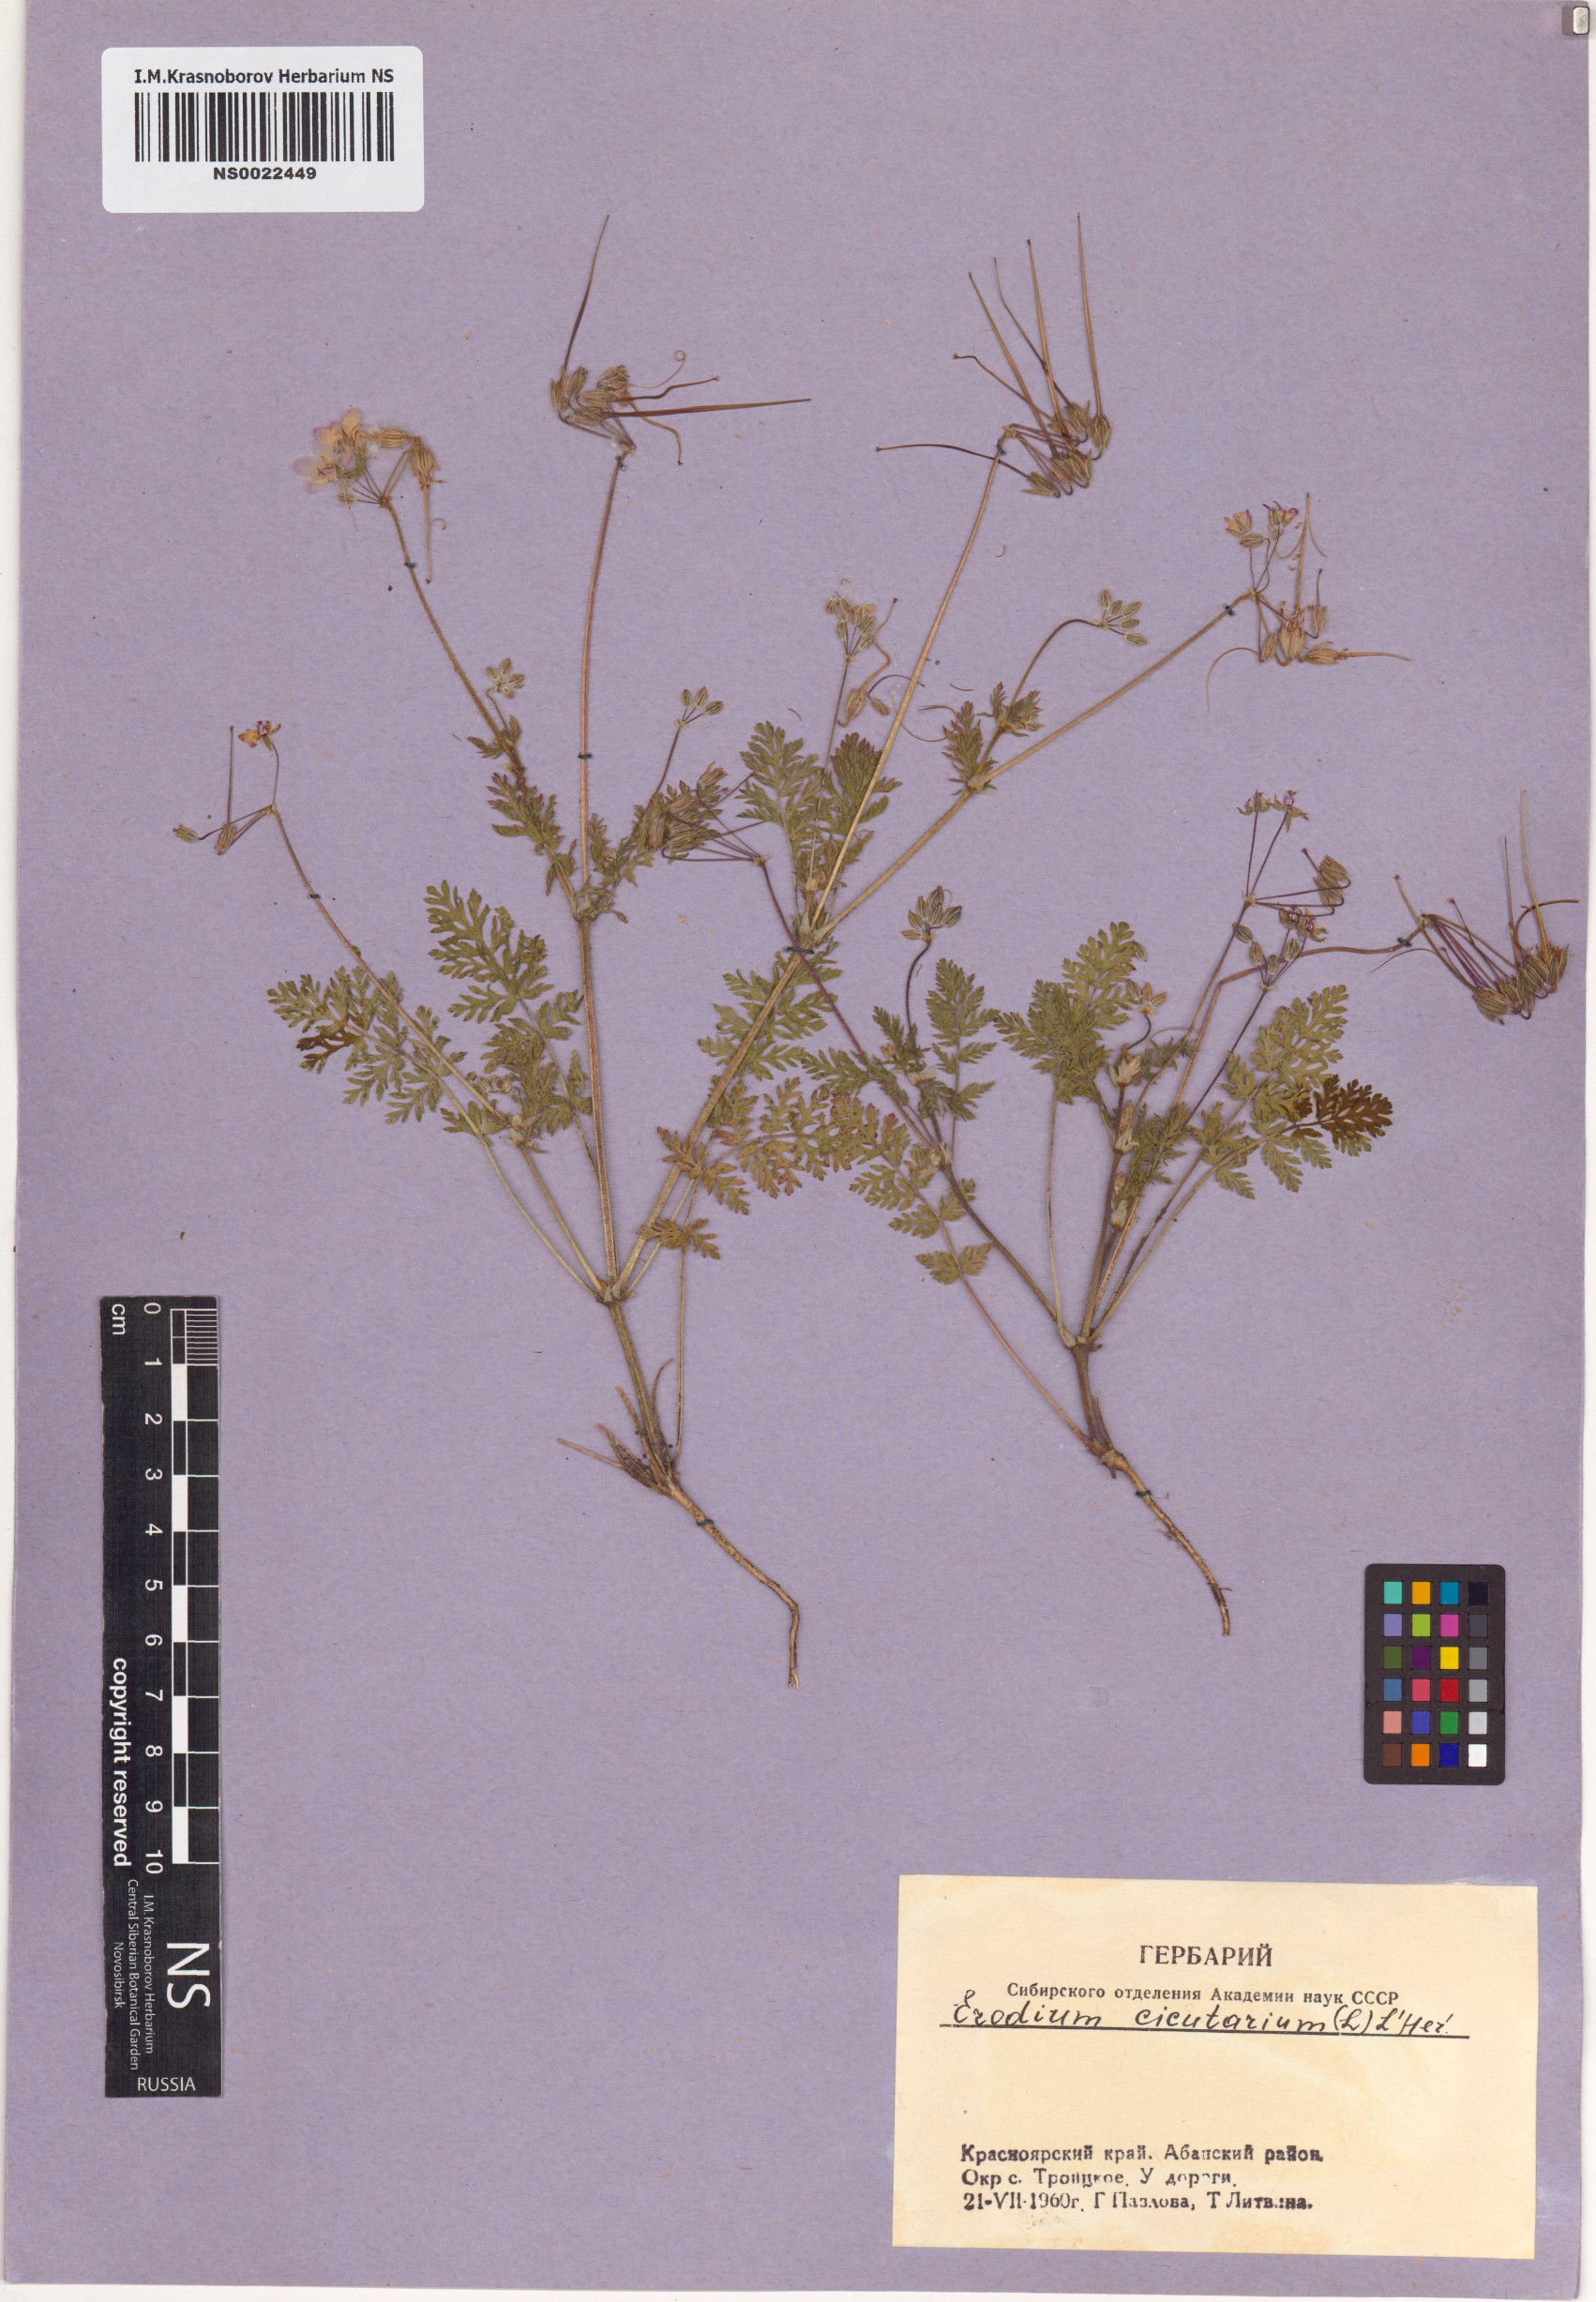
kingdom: Plantae
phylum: Tracheophyta
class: Magnoliopsida
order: Geraniales
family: Geraniaceae
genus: Erodium
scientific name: Erodium cicutarium
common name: Common stork's-bill
